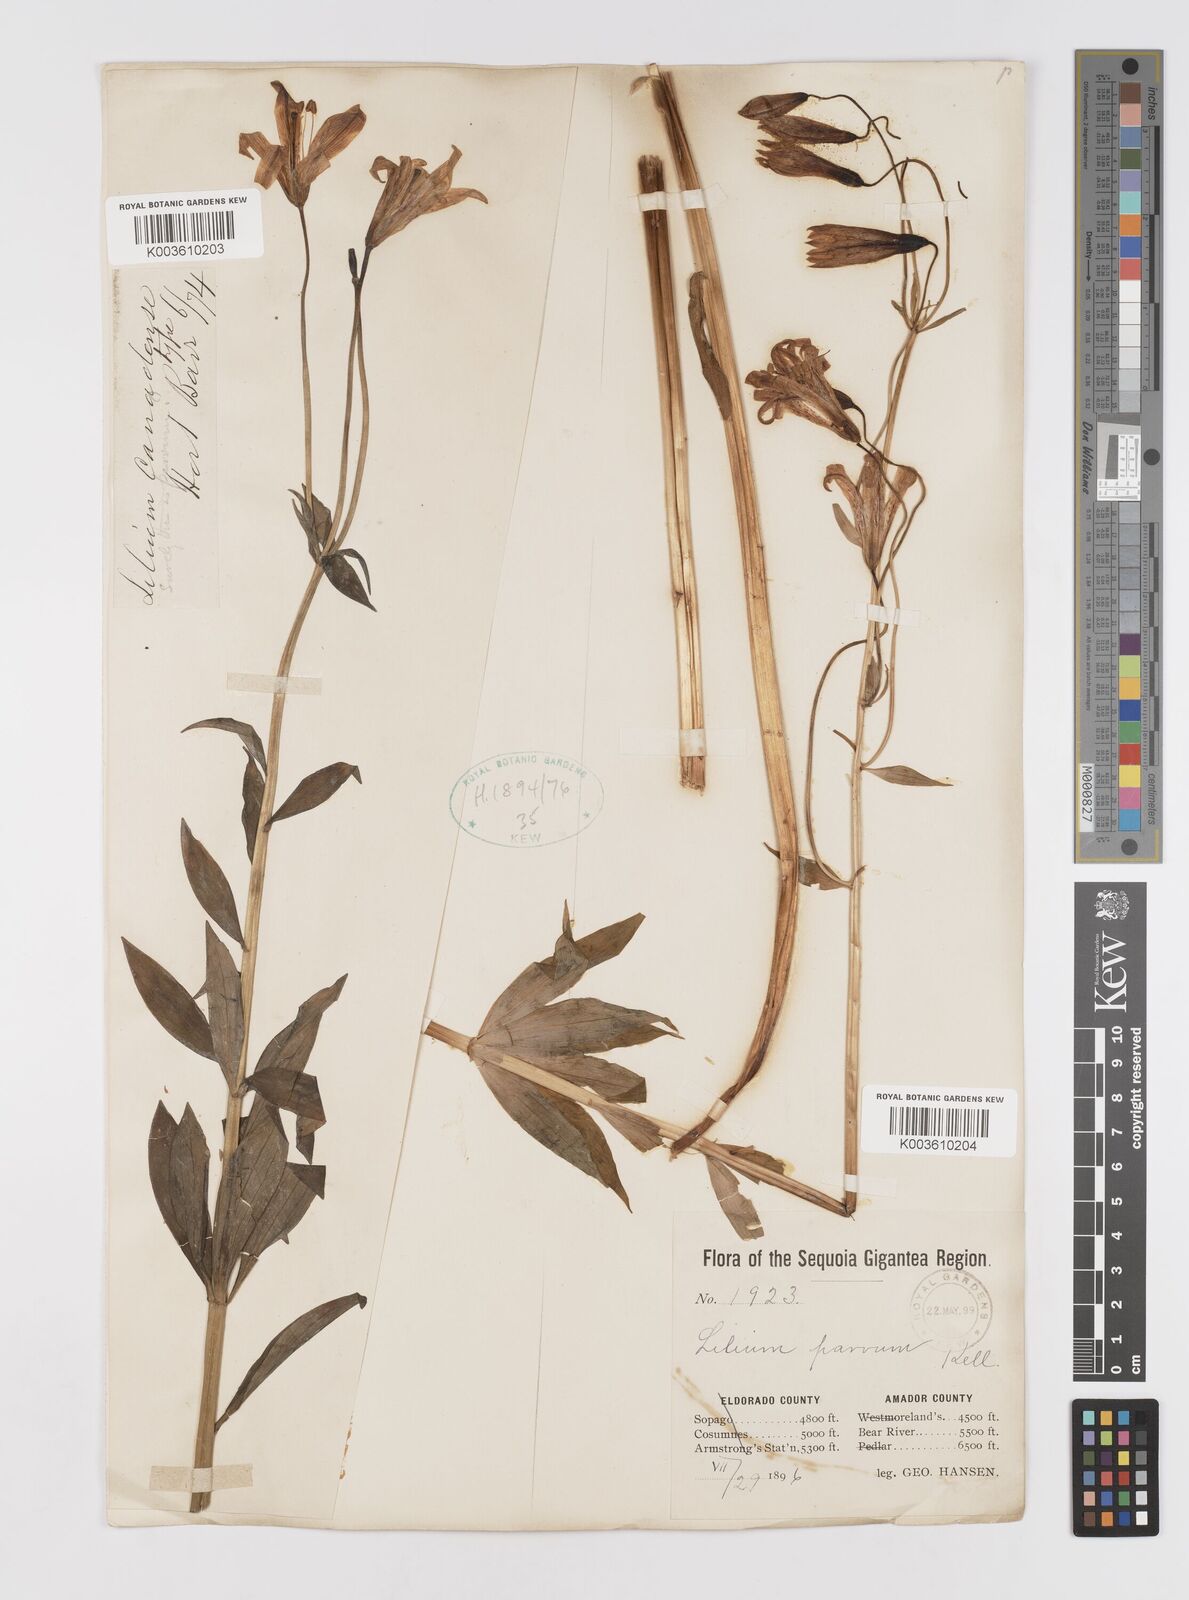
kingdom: Plantae
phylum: Tracheophyta
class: Liliopsida
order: Liliales
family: Liliaceae
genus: Lilium
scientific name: Lilium parvum
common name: Alpine lily
